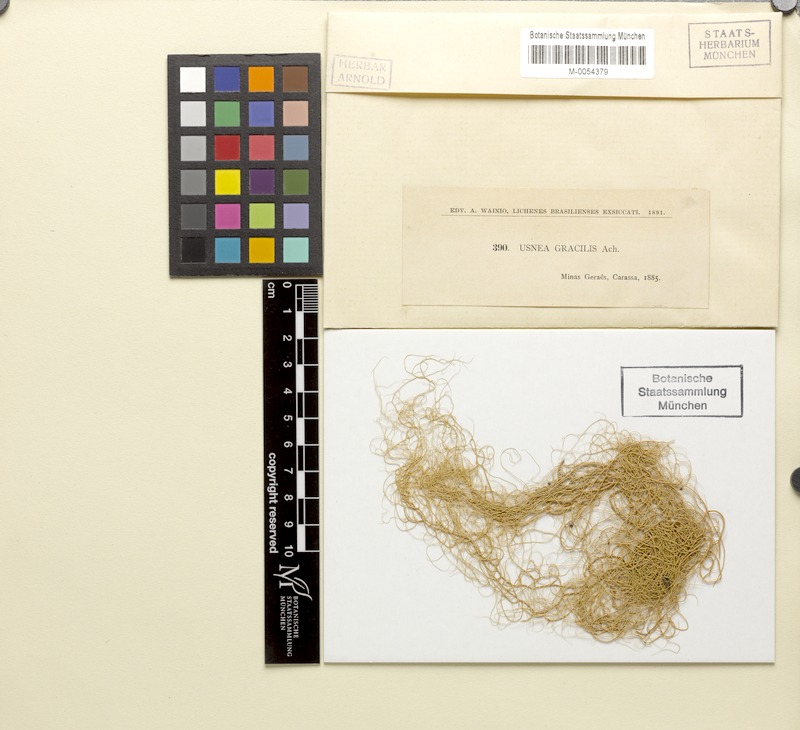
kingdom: Fungi
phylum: Ascomycota
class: Lecanoromycetes
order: Lecanorales
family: Parmeliaceae
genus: Usnea
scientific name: Usnea gracilis
